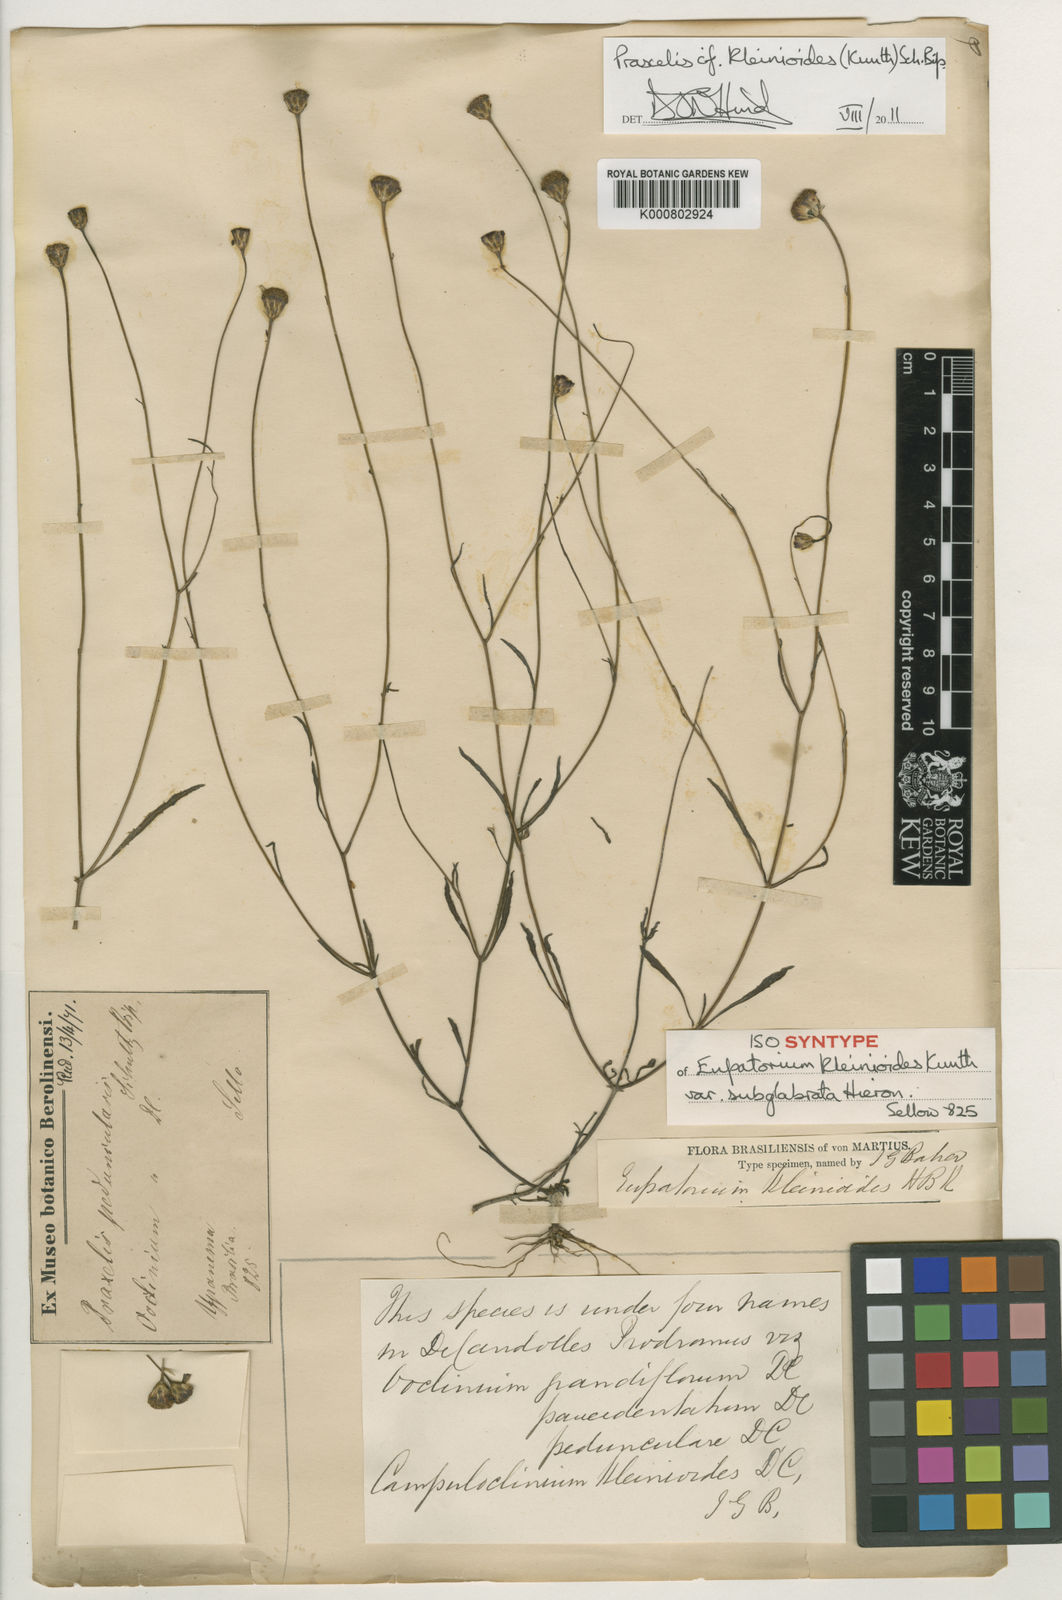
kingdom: Plantae
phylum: Tracheophyta
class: Magnoliopsida
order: Asterales
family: Asteraceae
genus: Praxelis
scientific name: Praxelis kleinioides
